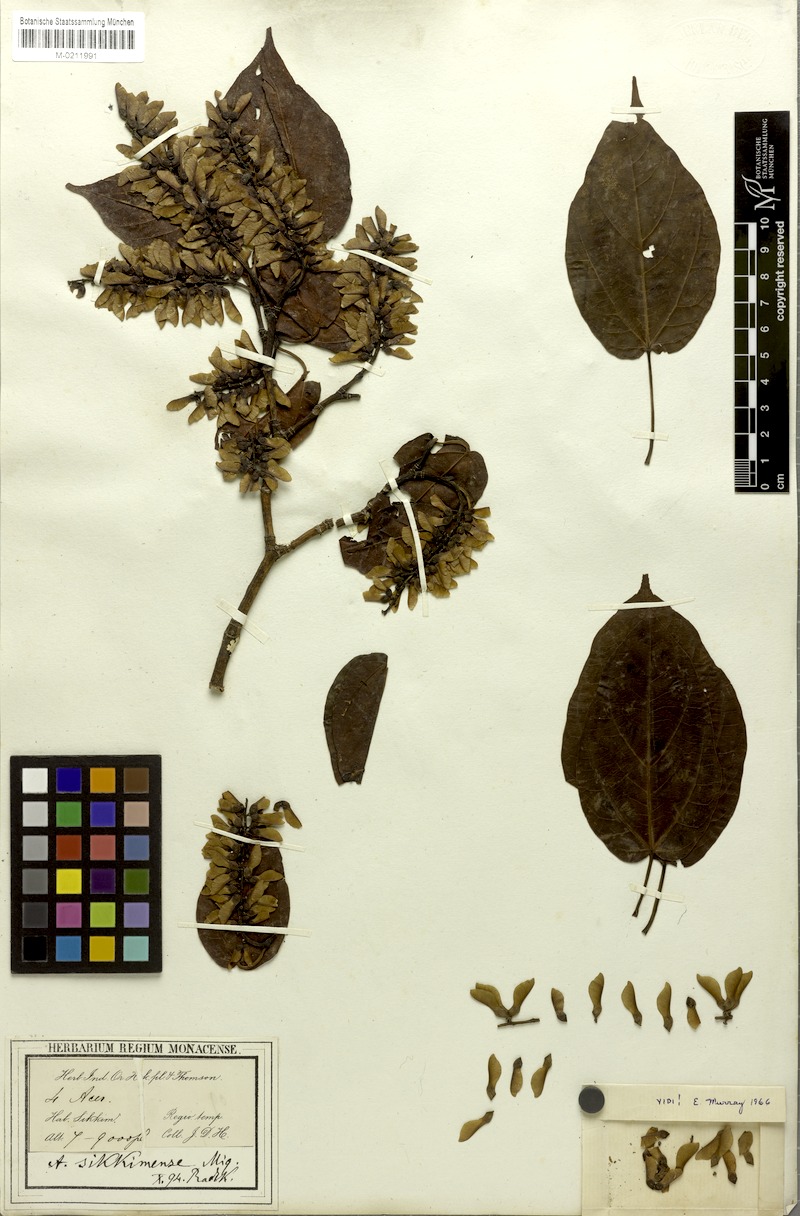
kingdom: Plantae
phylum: Tracheophyta
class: Magnoliopsida
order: Sapindales
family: Sapindaceae
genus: Acer
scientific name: Acer sikkimense
